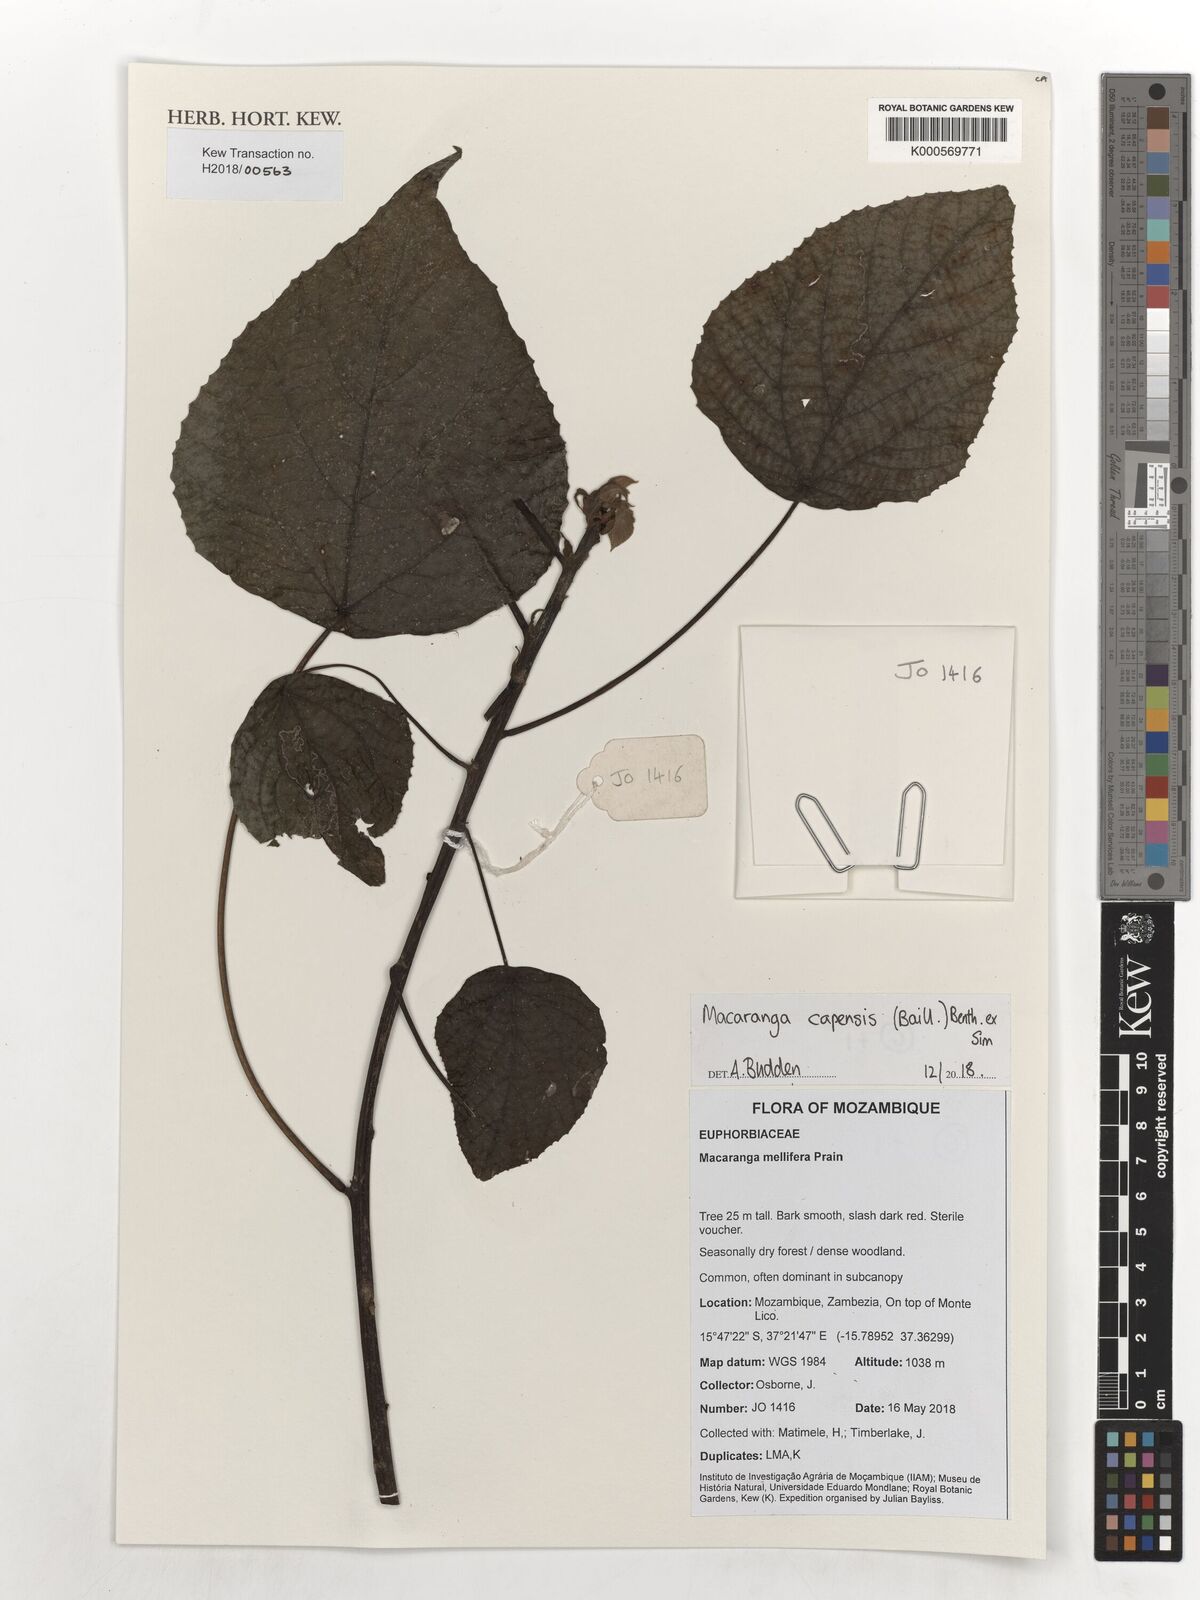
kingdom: Plantae
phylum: Tracheophyta
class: Magnoliopsida
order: Malpighiales
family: Euphorbiaceae
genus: Macaranga
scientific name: Macaranga capensis
